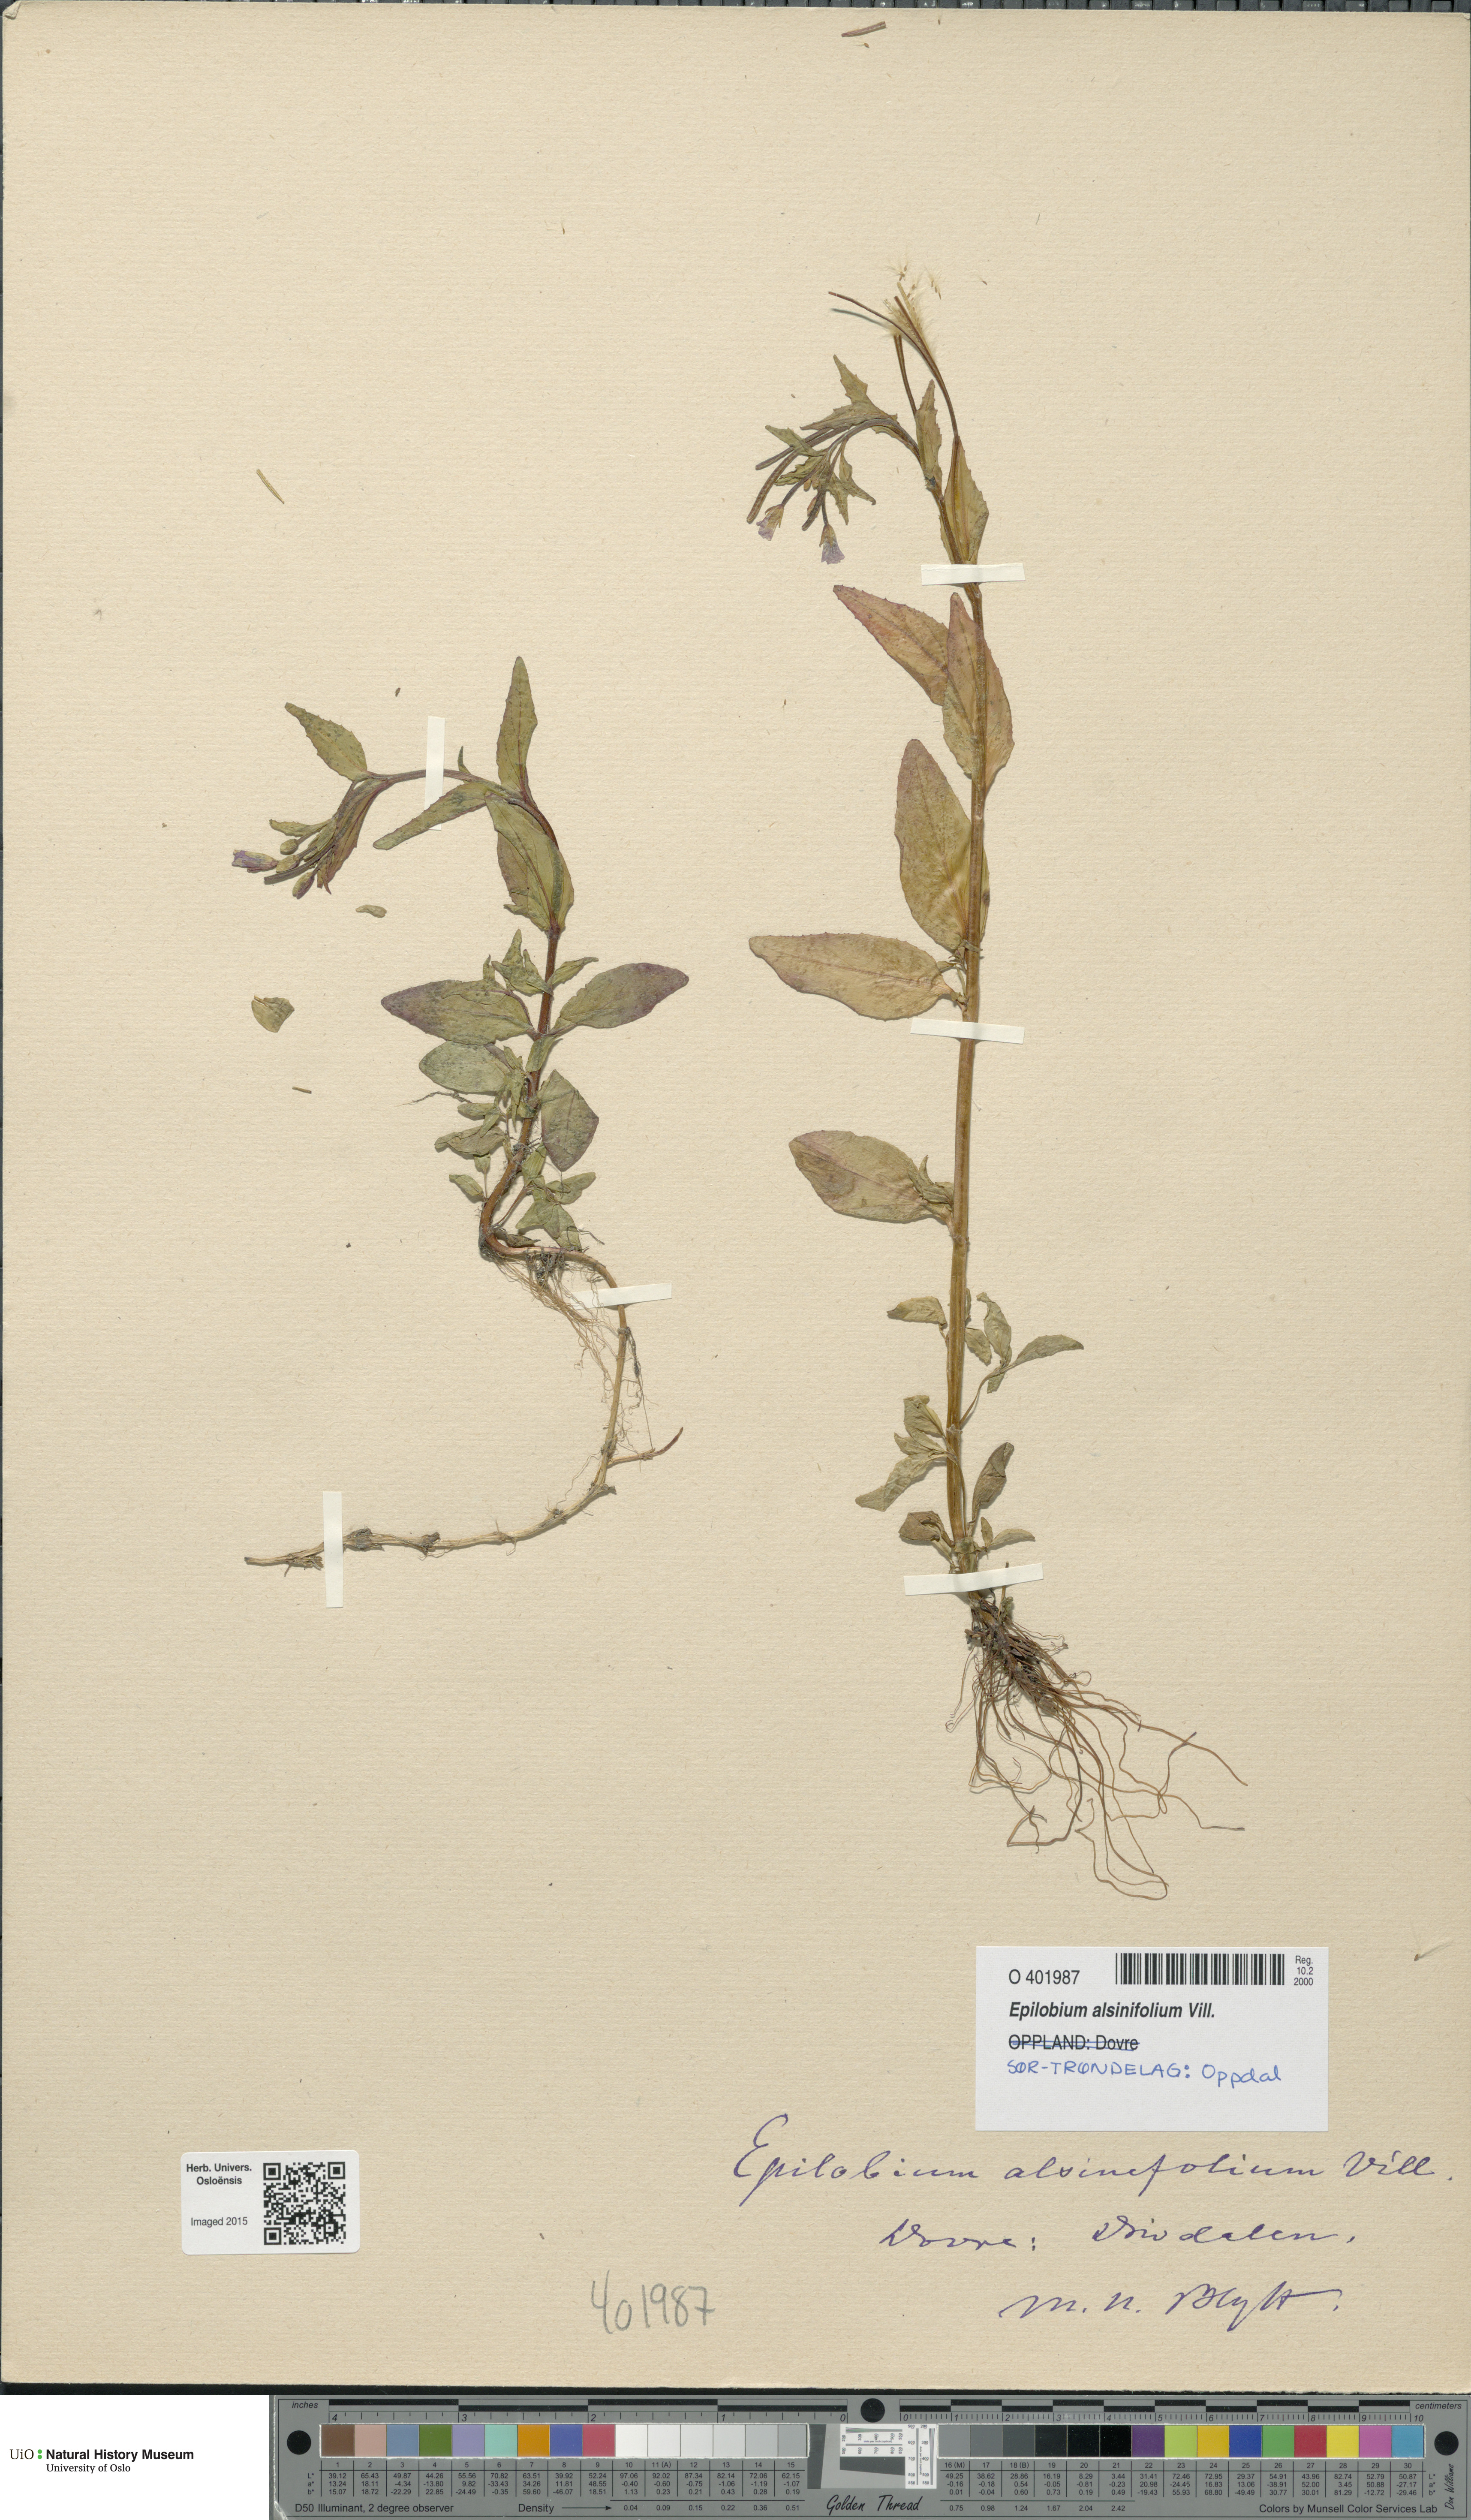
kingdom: Plantae
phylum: Tracheophyta
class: Magnoliopsida
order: Myrtales
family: Onagraceae
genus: Epilobium
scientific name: Epilobium alsinifolium
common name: Chickweed willowherb
